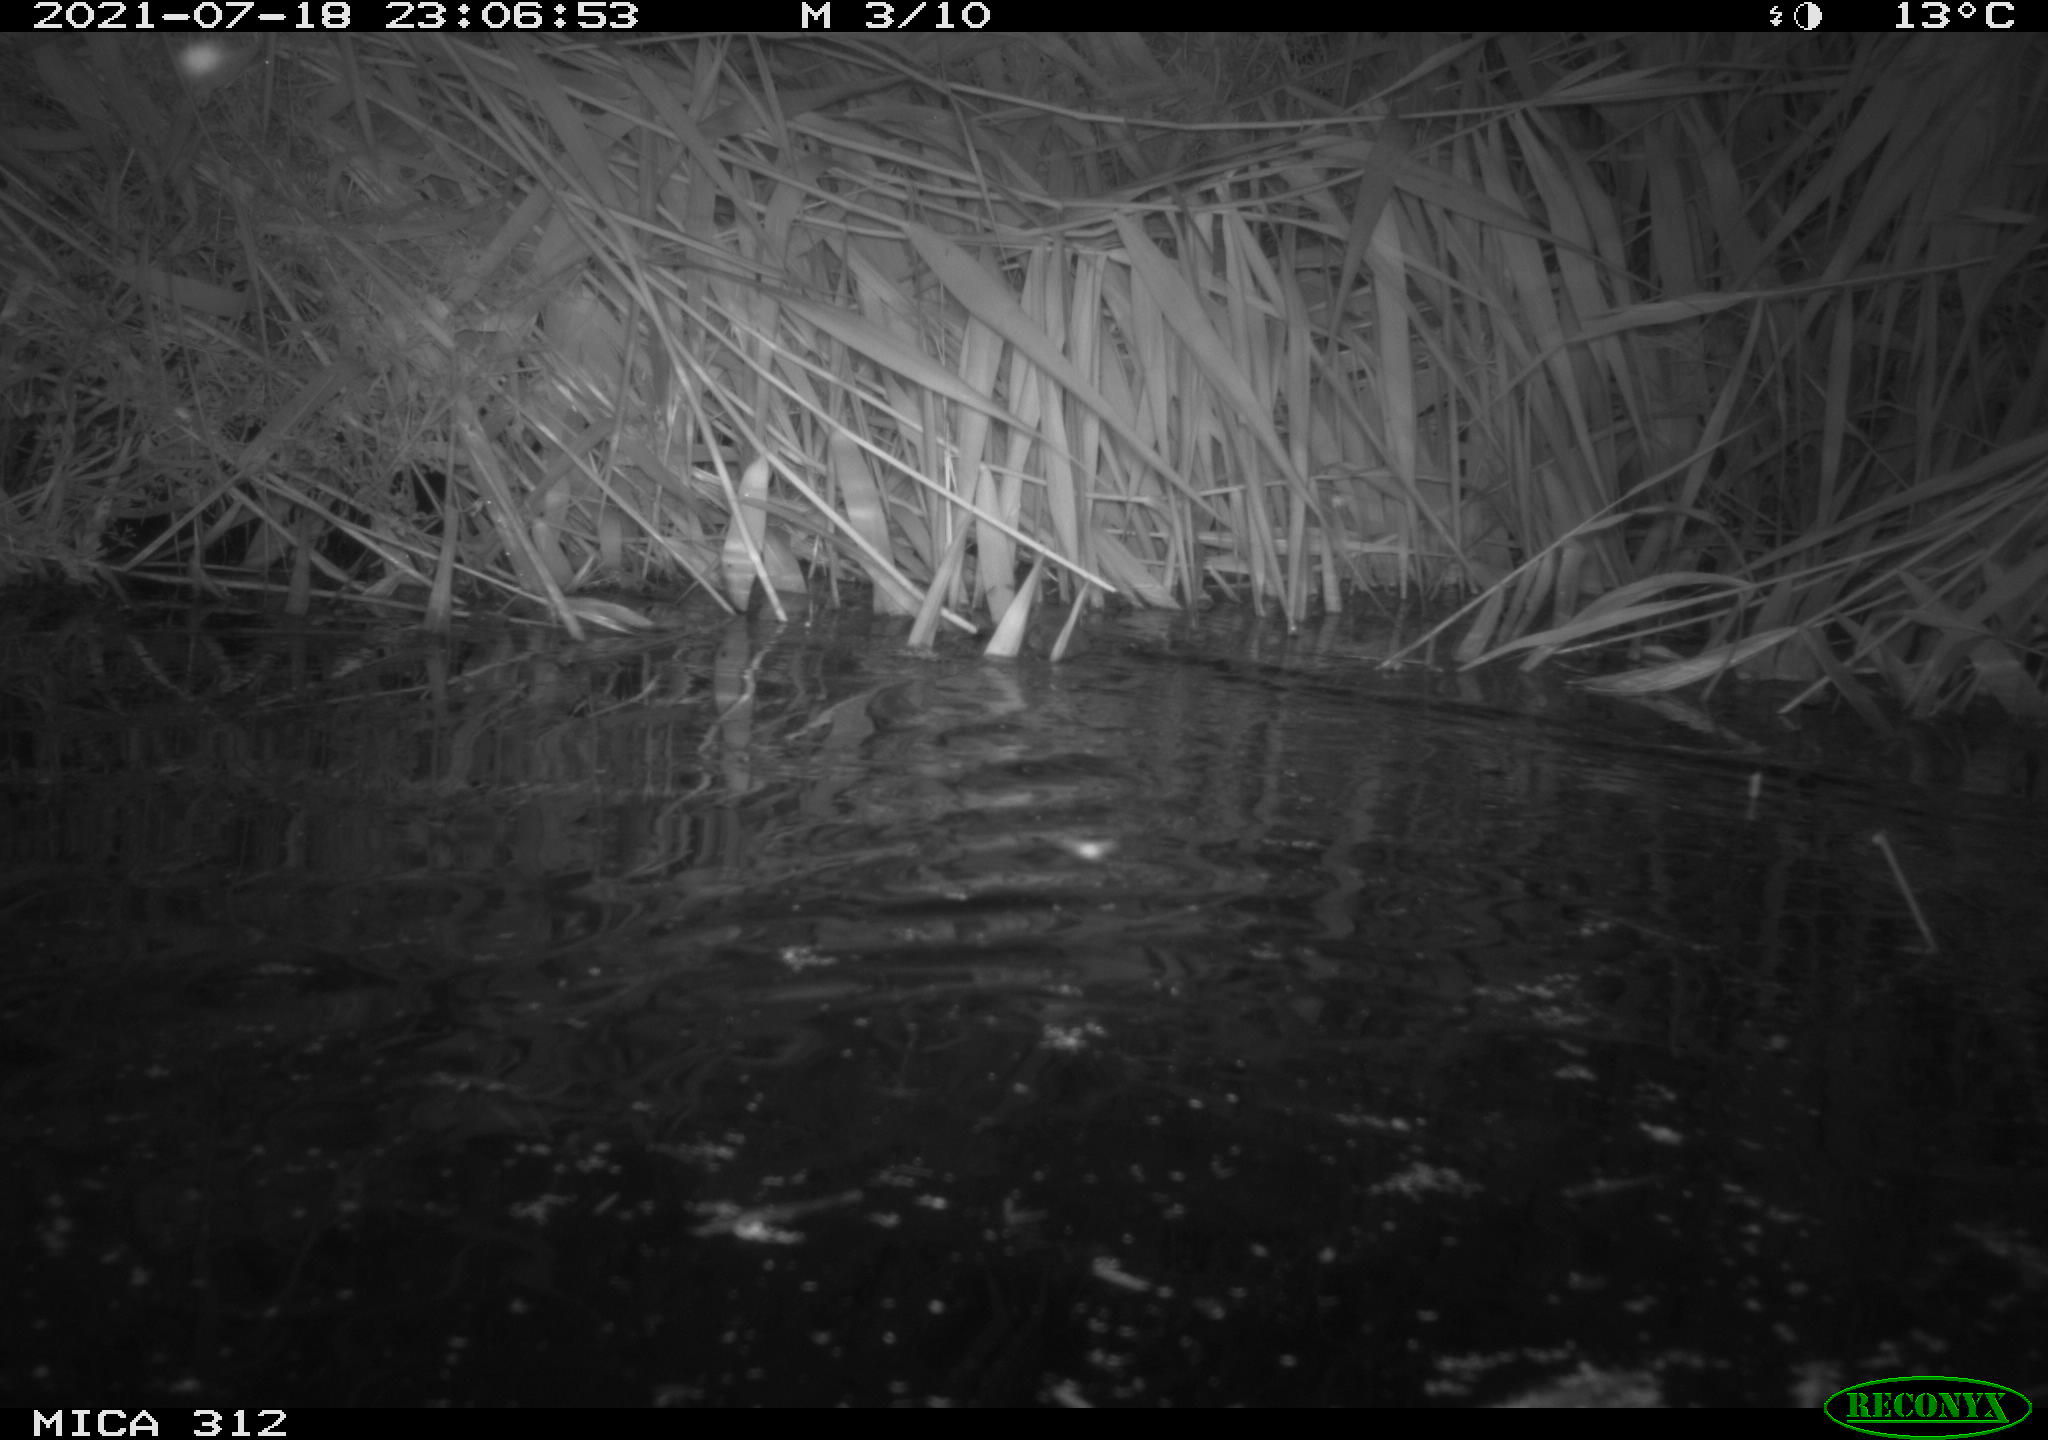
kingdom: Animalia
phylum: Chordata
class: Mammalia
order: Rodentia
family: Muridae
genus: Rattus
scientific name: Rattus norvegicus
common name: Brown rat
